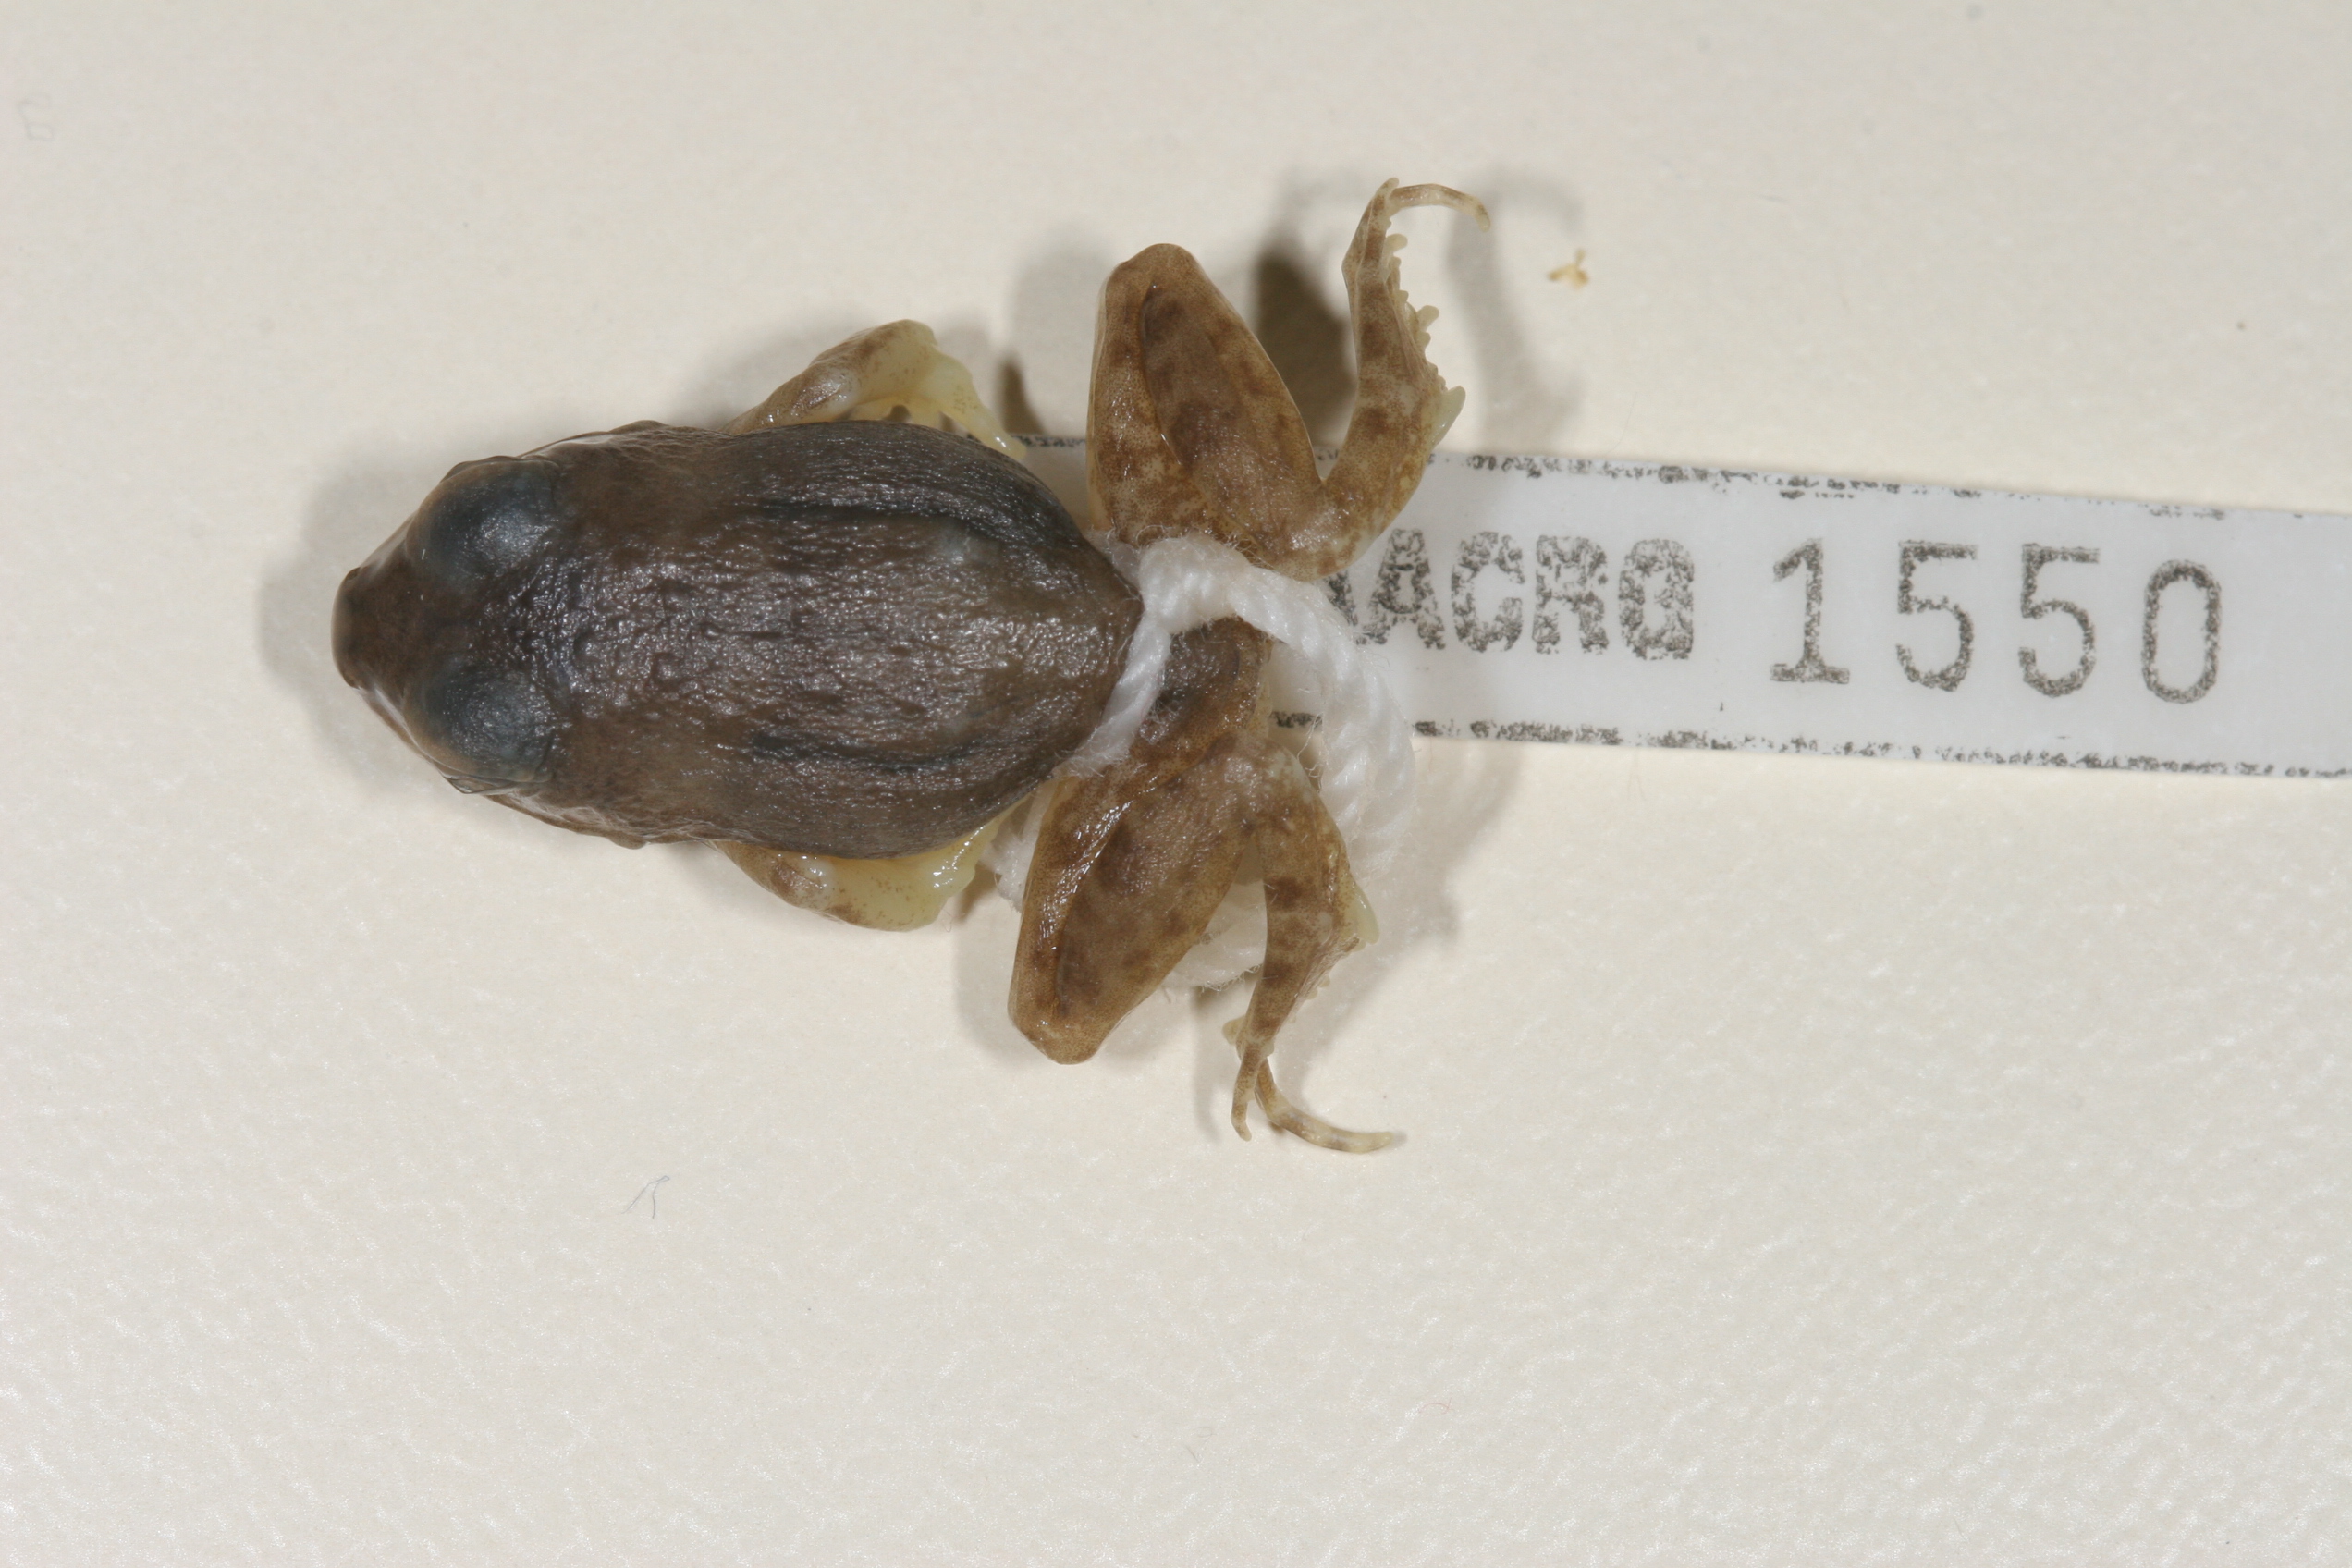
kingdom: Animalia
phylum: Chordata
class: Amphibia
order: Anura
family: Pyxicephalidae
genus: Tomopterna
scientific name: Tomopterna marmorata
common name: Russet-backed sand frog
